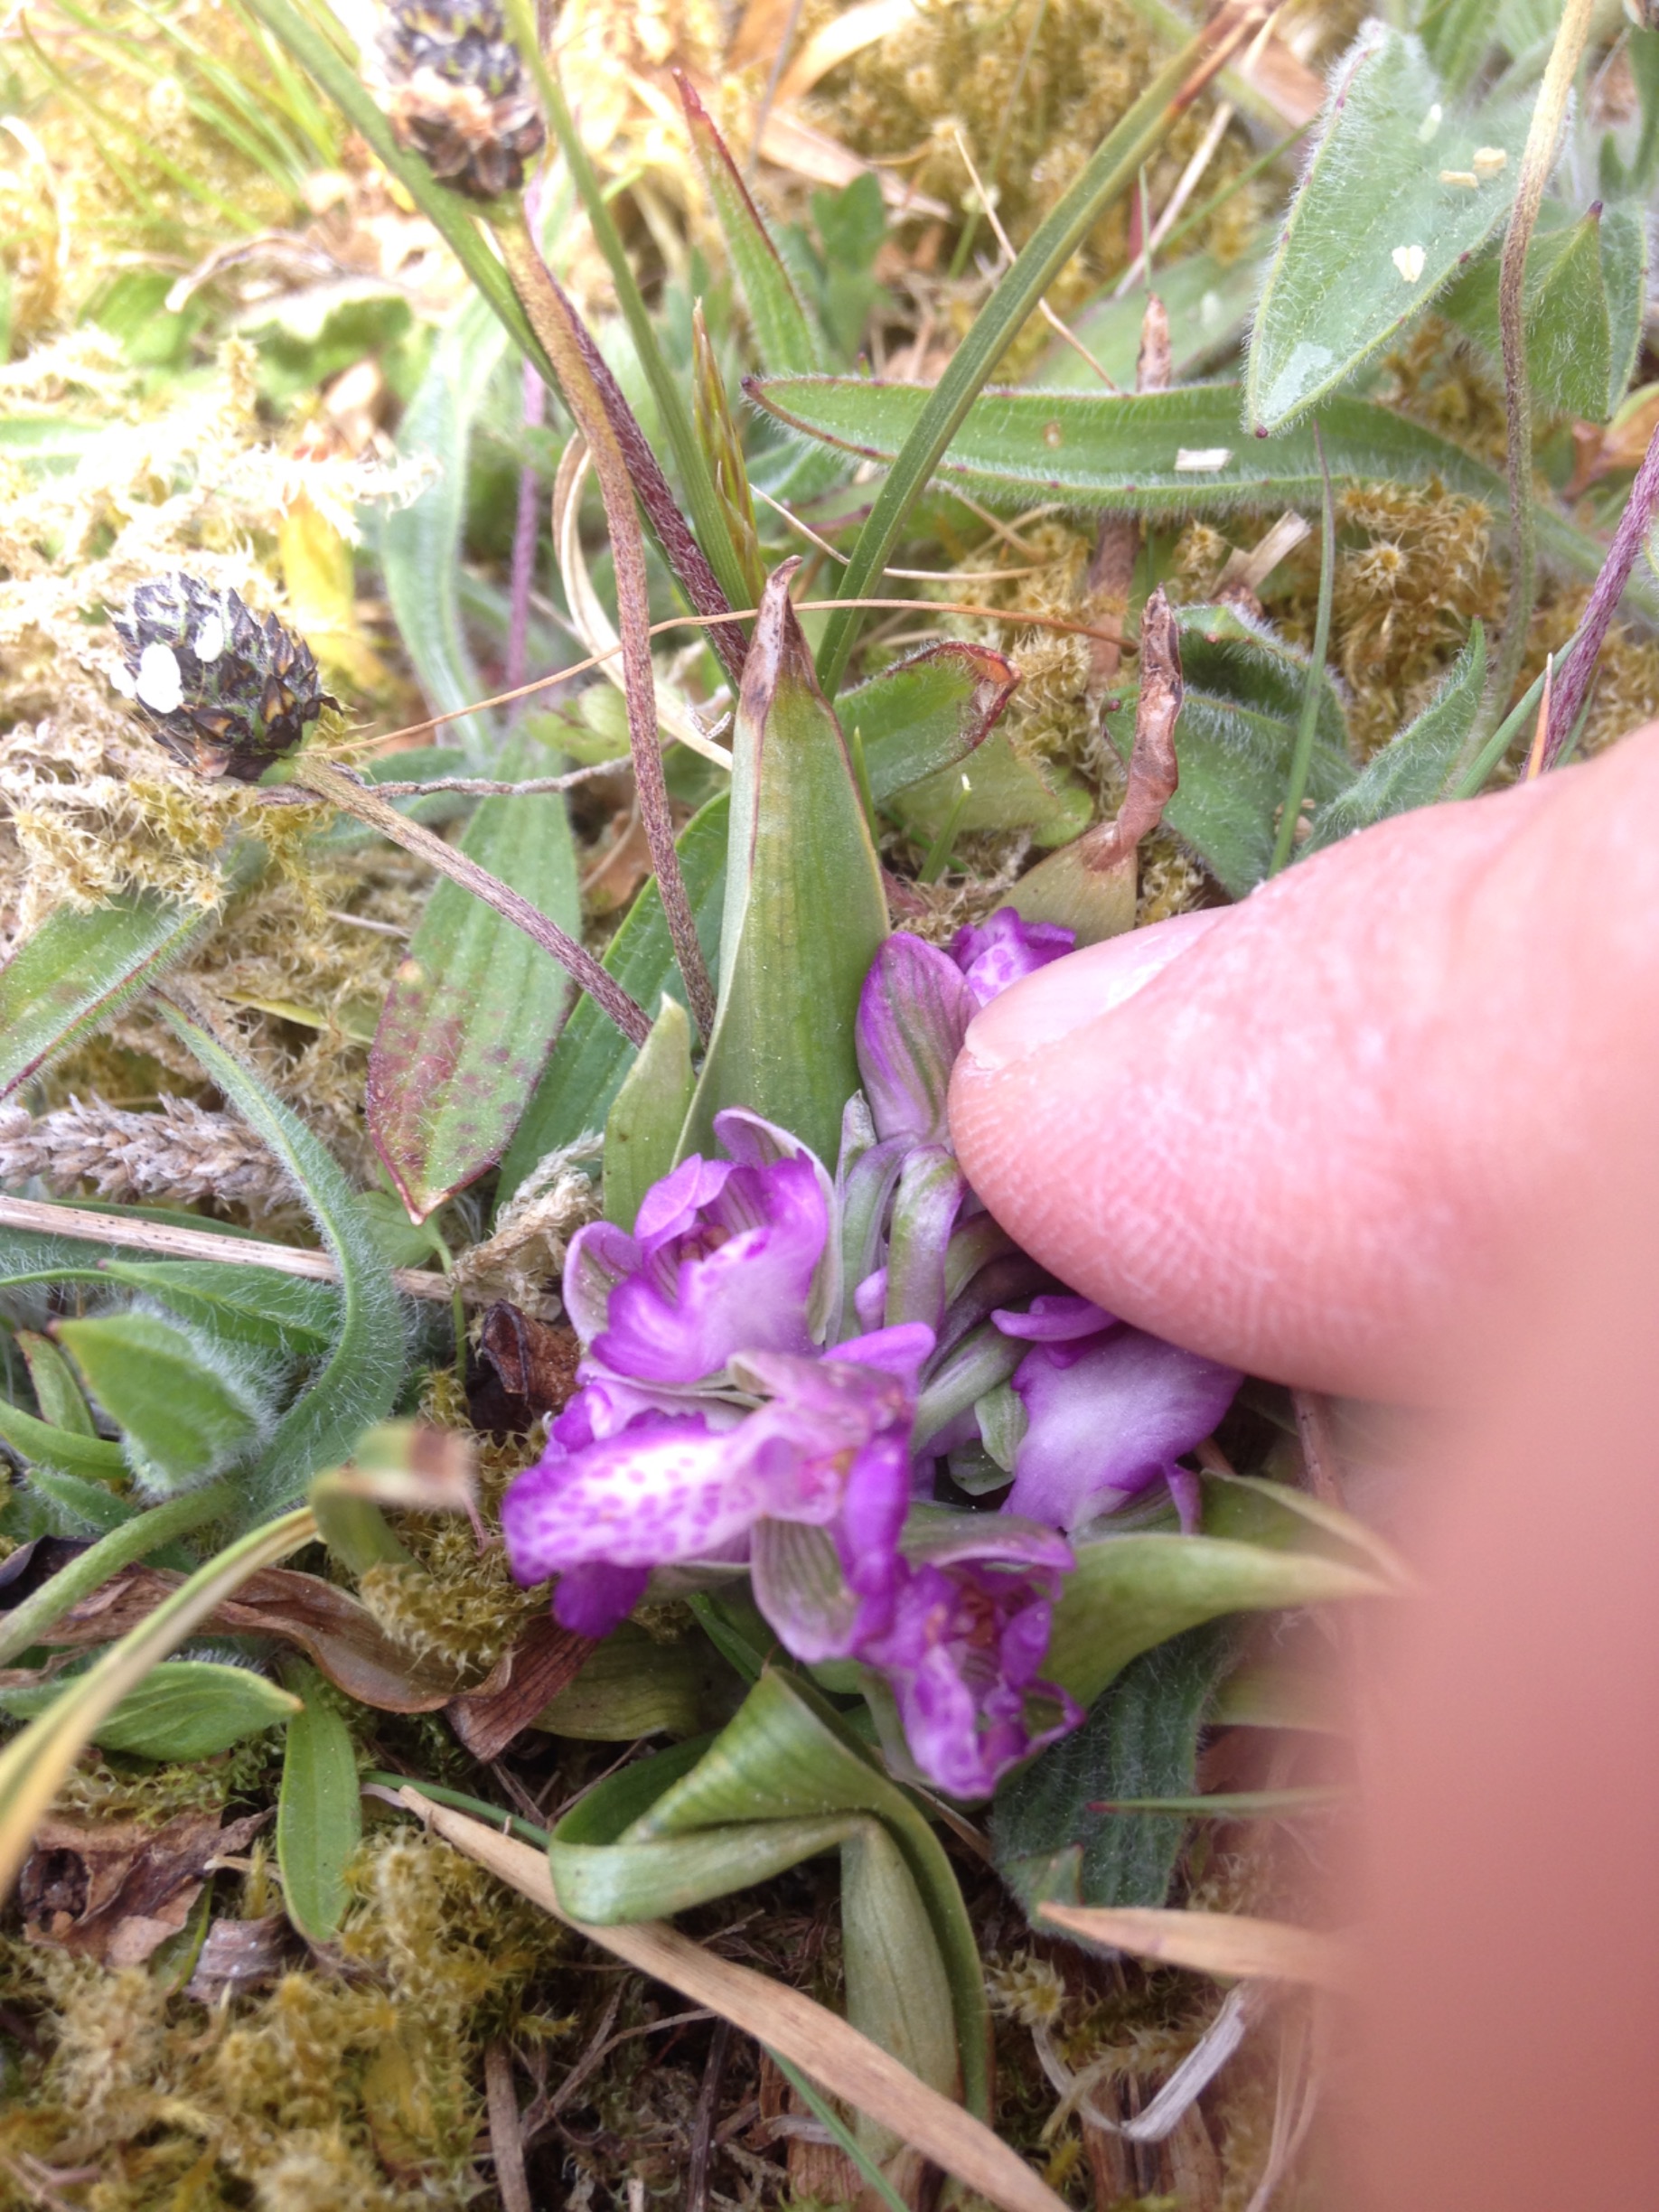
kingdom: Plantae
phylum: Tracheophyta
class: Liliopsida
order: Asparagales
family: Orchidaceae
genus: Anacamptis
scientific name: Anacamptis morio
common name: Salepgøgeurt
